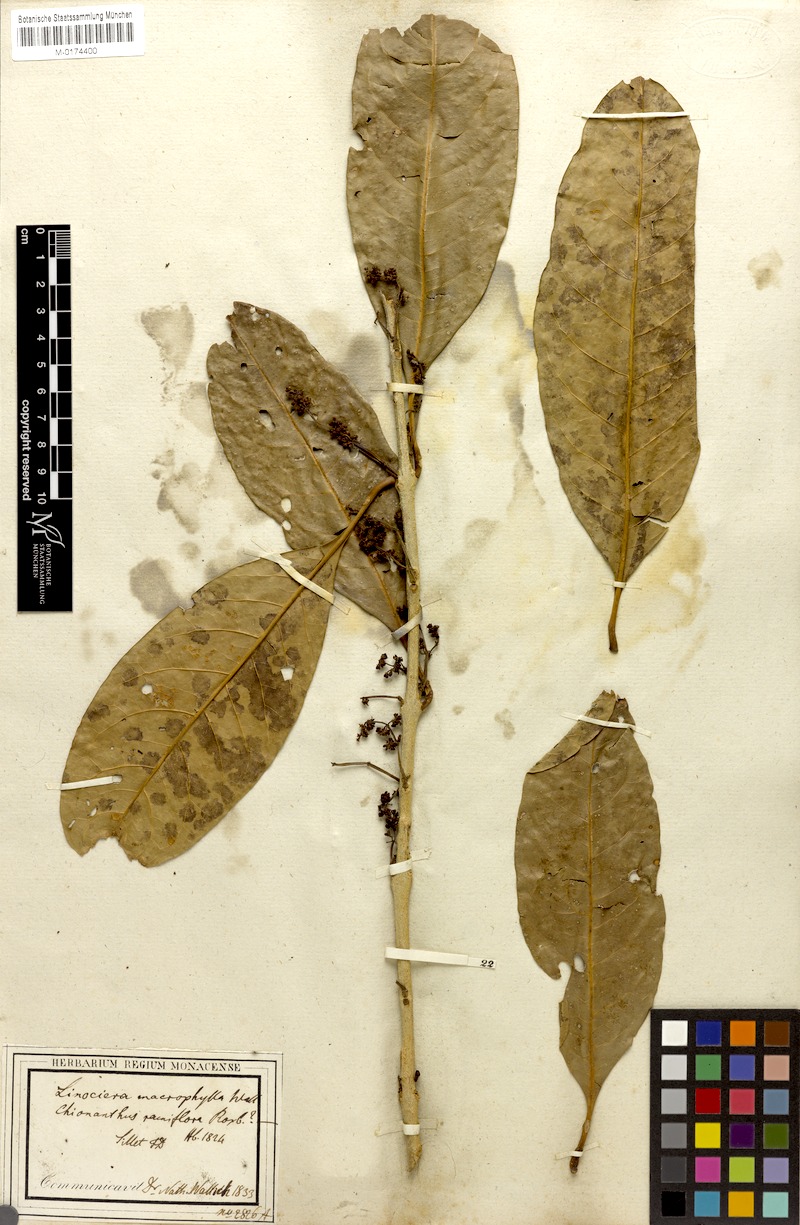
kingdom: Plantae
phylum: Tracheophyta
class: Magnoliopsida
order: Lamiales
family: Oleaceae
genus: Chionanthus
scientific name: Chionanthus ramiflorus
